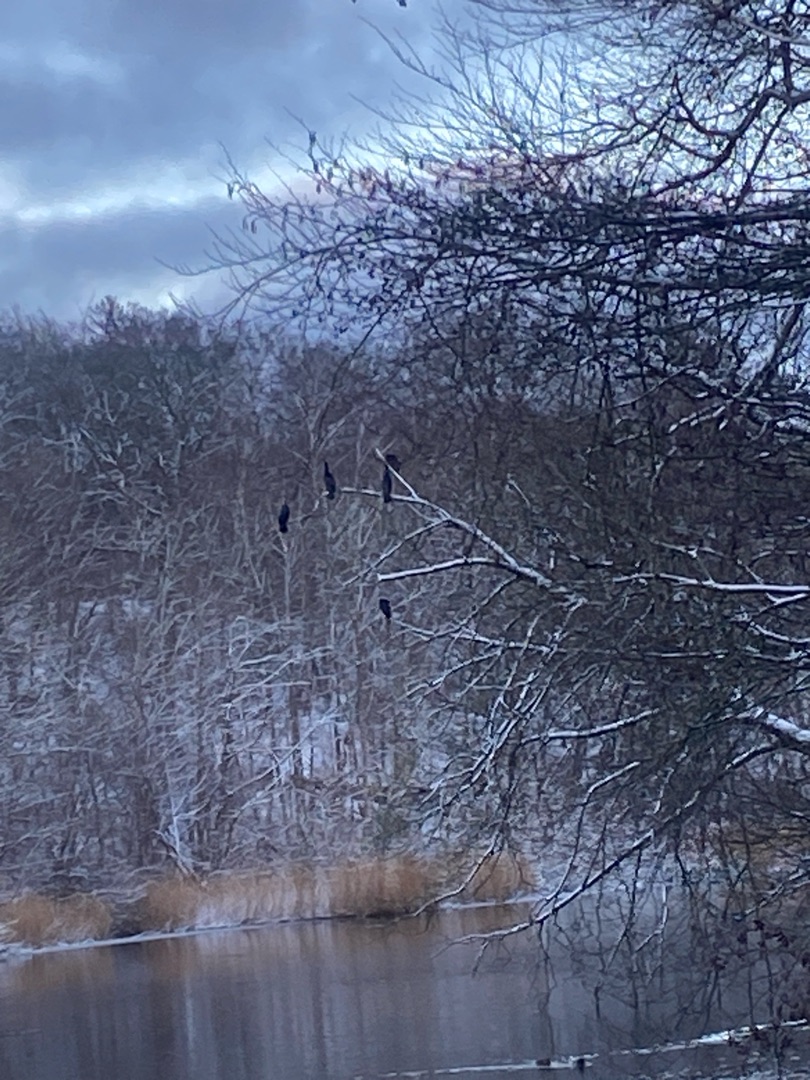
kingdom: Animalia
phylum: Chordata
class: Aves
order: Suliformes
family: Phalacrocoracidae
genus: Phalacrocorax
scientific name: Phalacrocorax carbo
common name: Skarv
